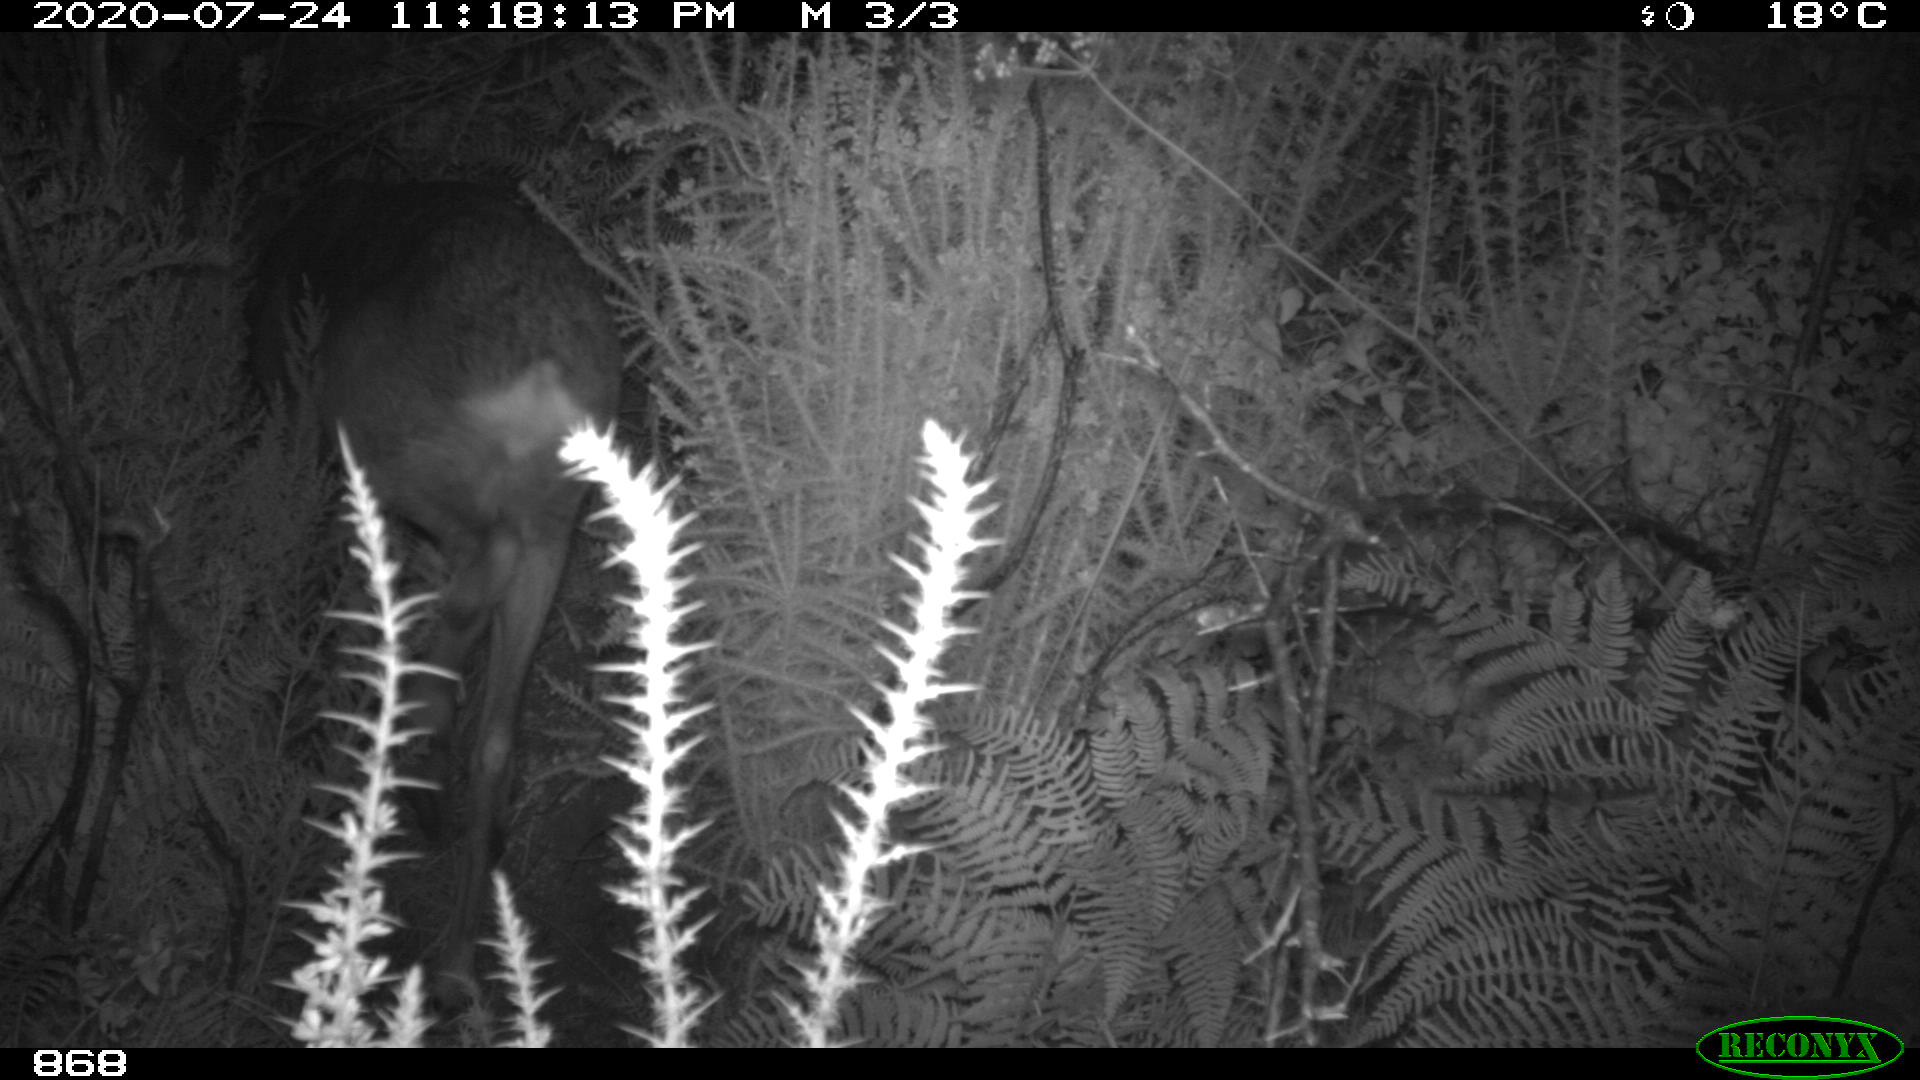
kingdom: Animalia
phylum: Chordata
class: Mammalia
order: Artiodactyla
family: Cervidae
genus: Capreolus
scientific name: Capreolus capreolus
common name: Western roe deer
